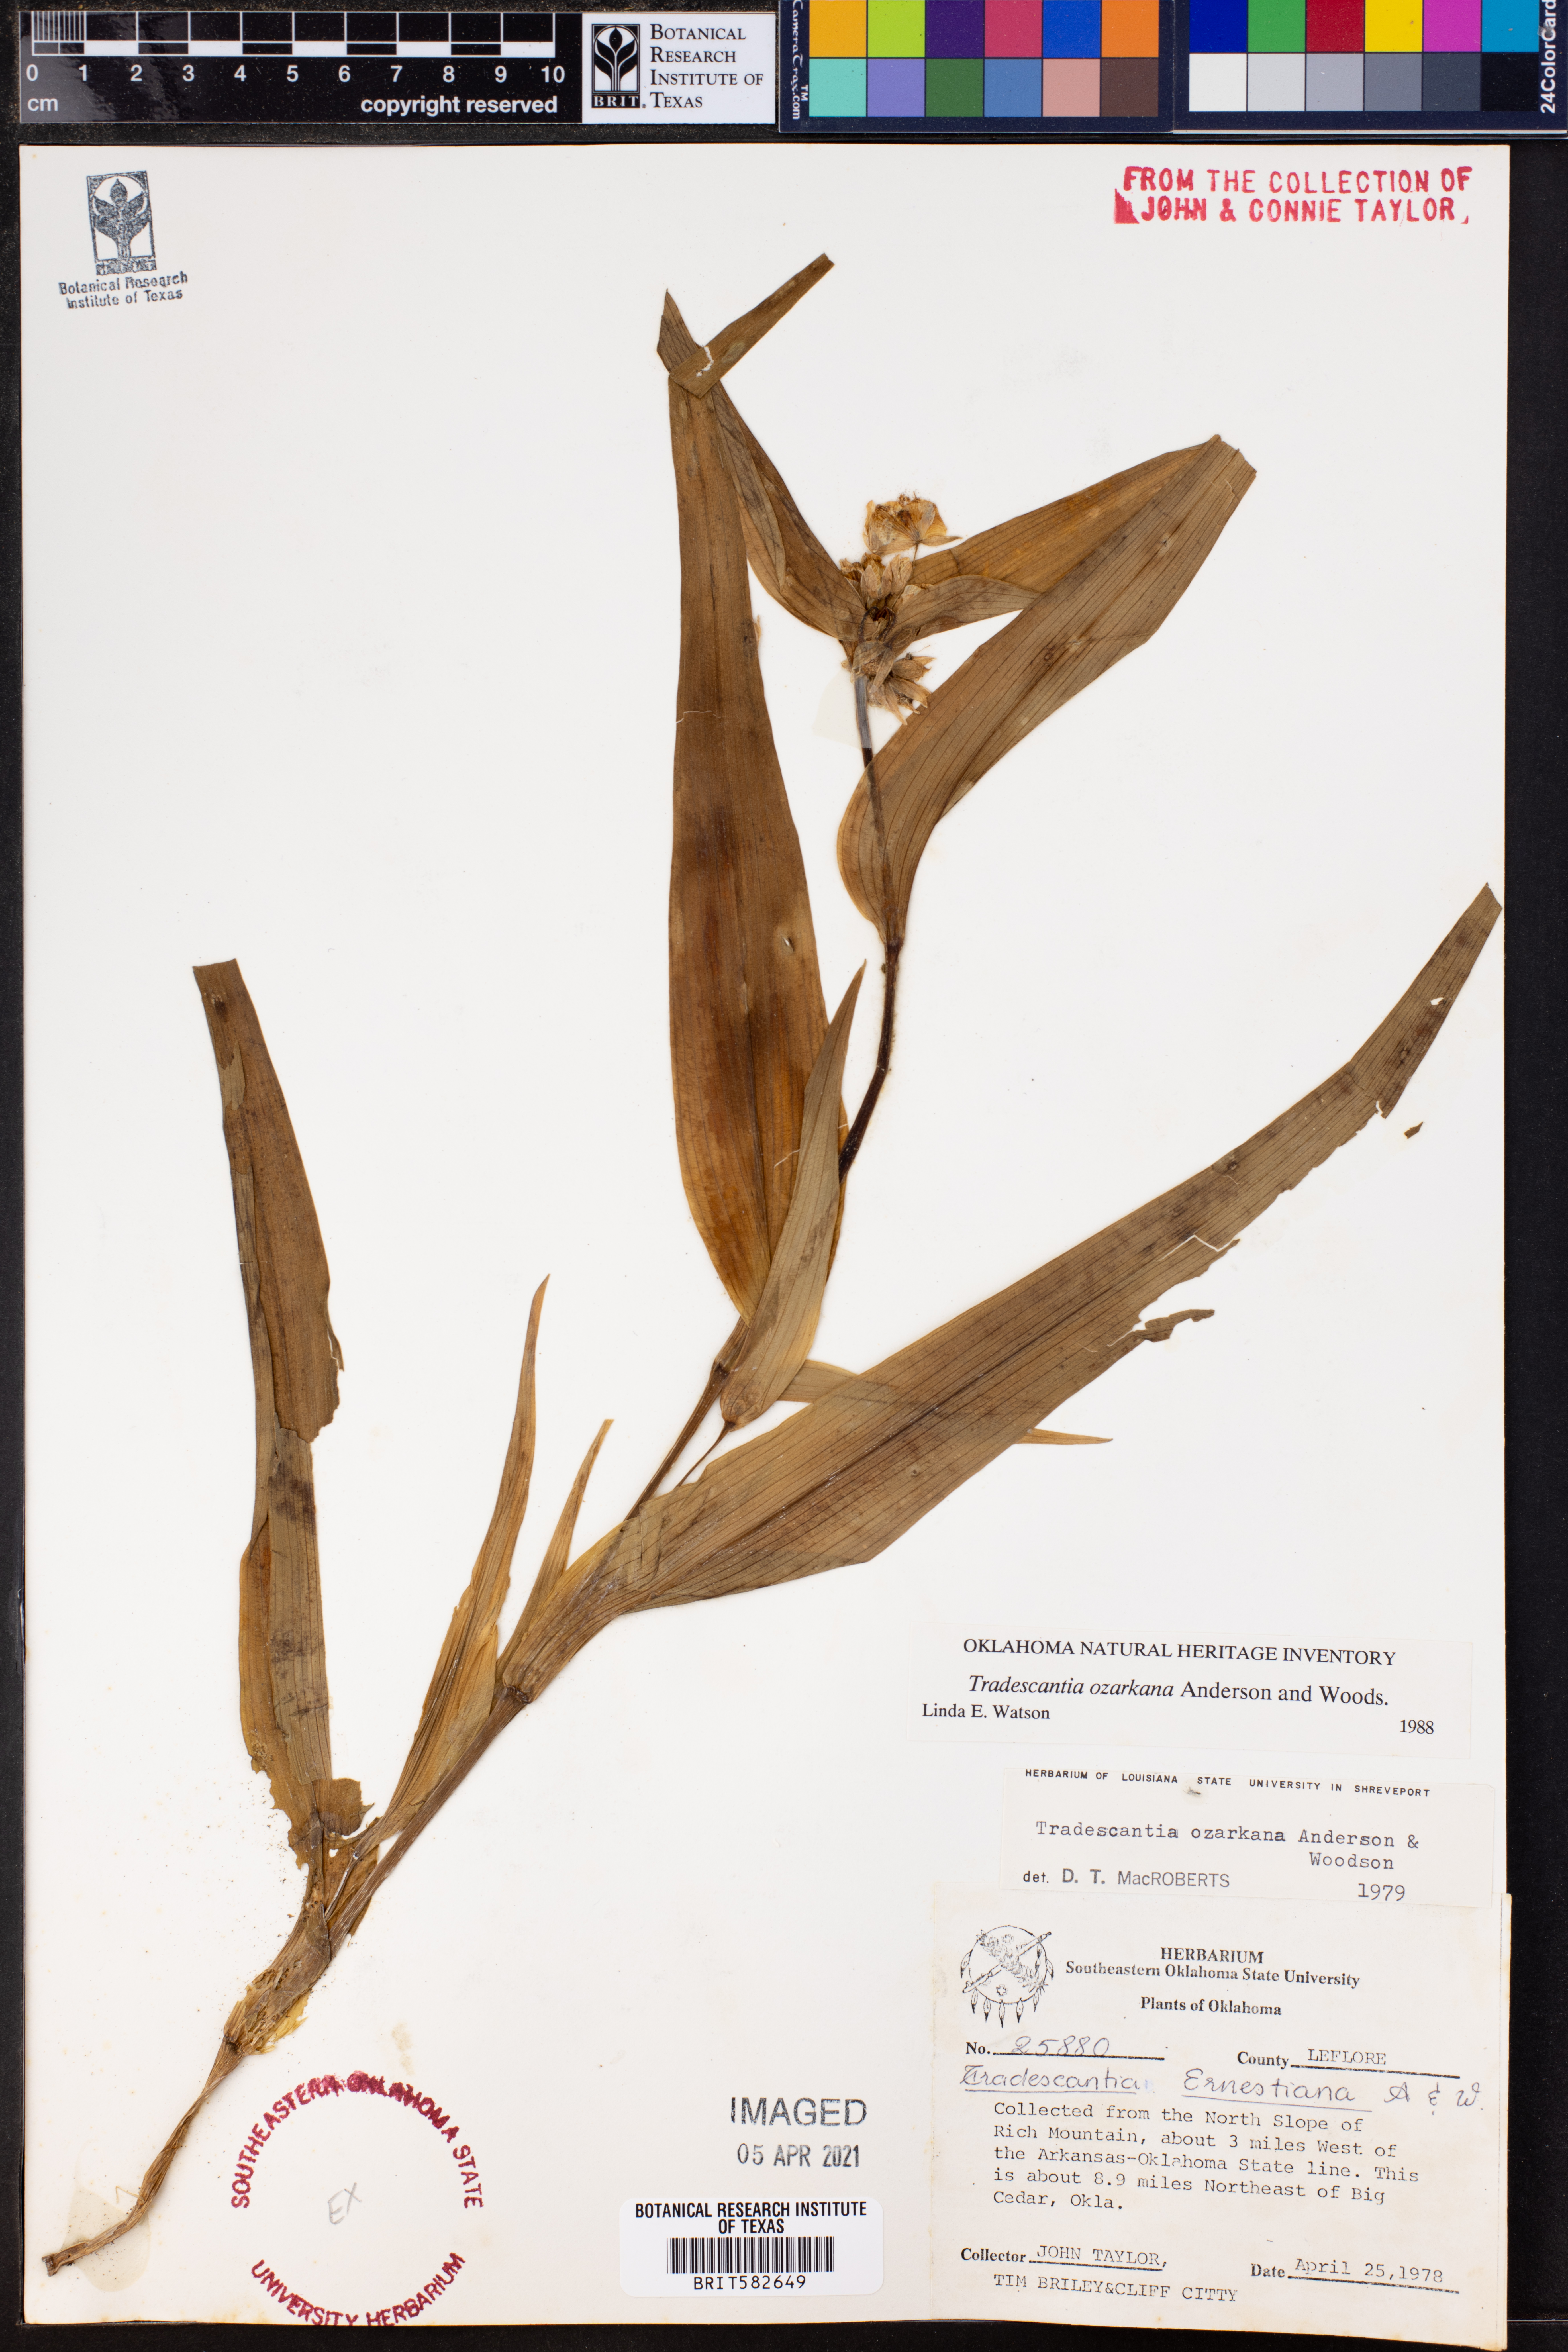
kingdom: Plantae
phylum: Tracheophyta
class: Liliopsida
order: Commelinales
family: Commelinaceae
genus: Tradescantia
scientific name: Tradescantia ozarkana
